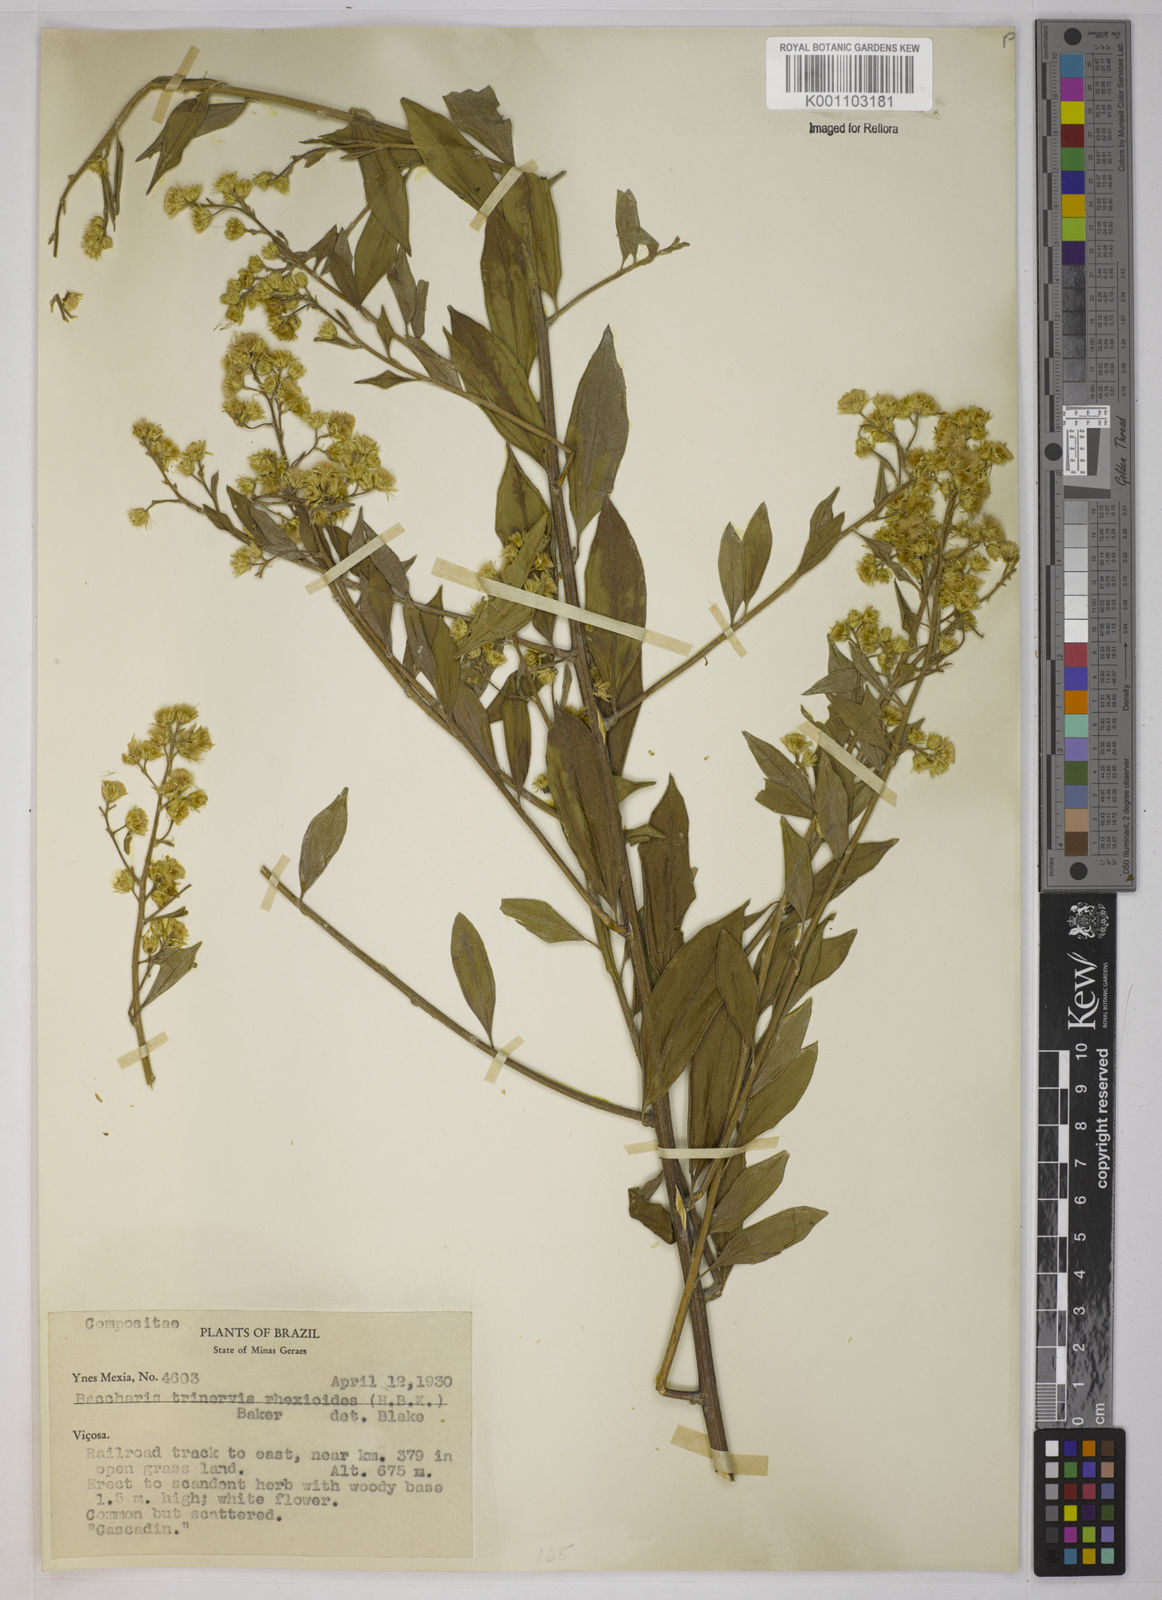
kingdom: Plantae
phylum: Tracheophyta
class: Magnoliopsida
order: Asterales
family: Asteraceae
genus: Baccharis
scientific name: Baccharis trinervis
